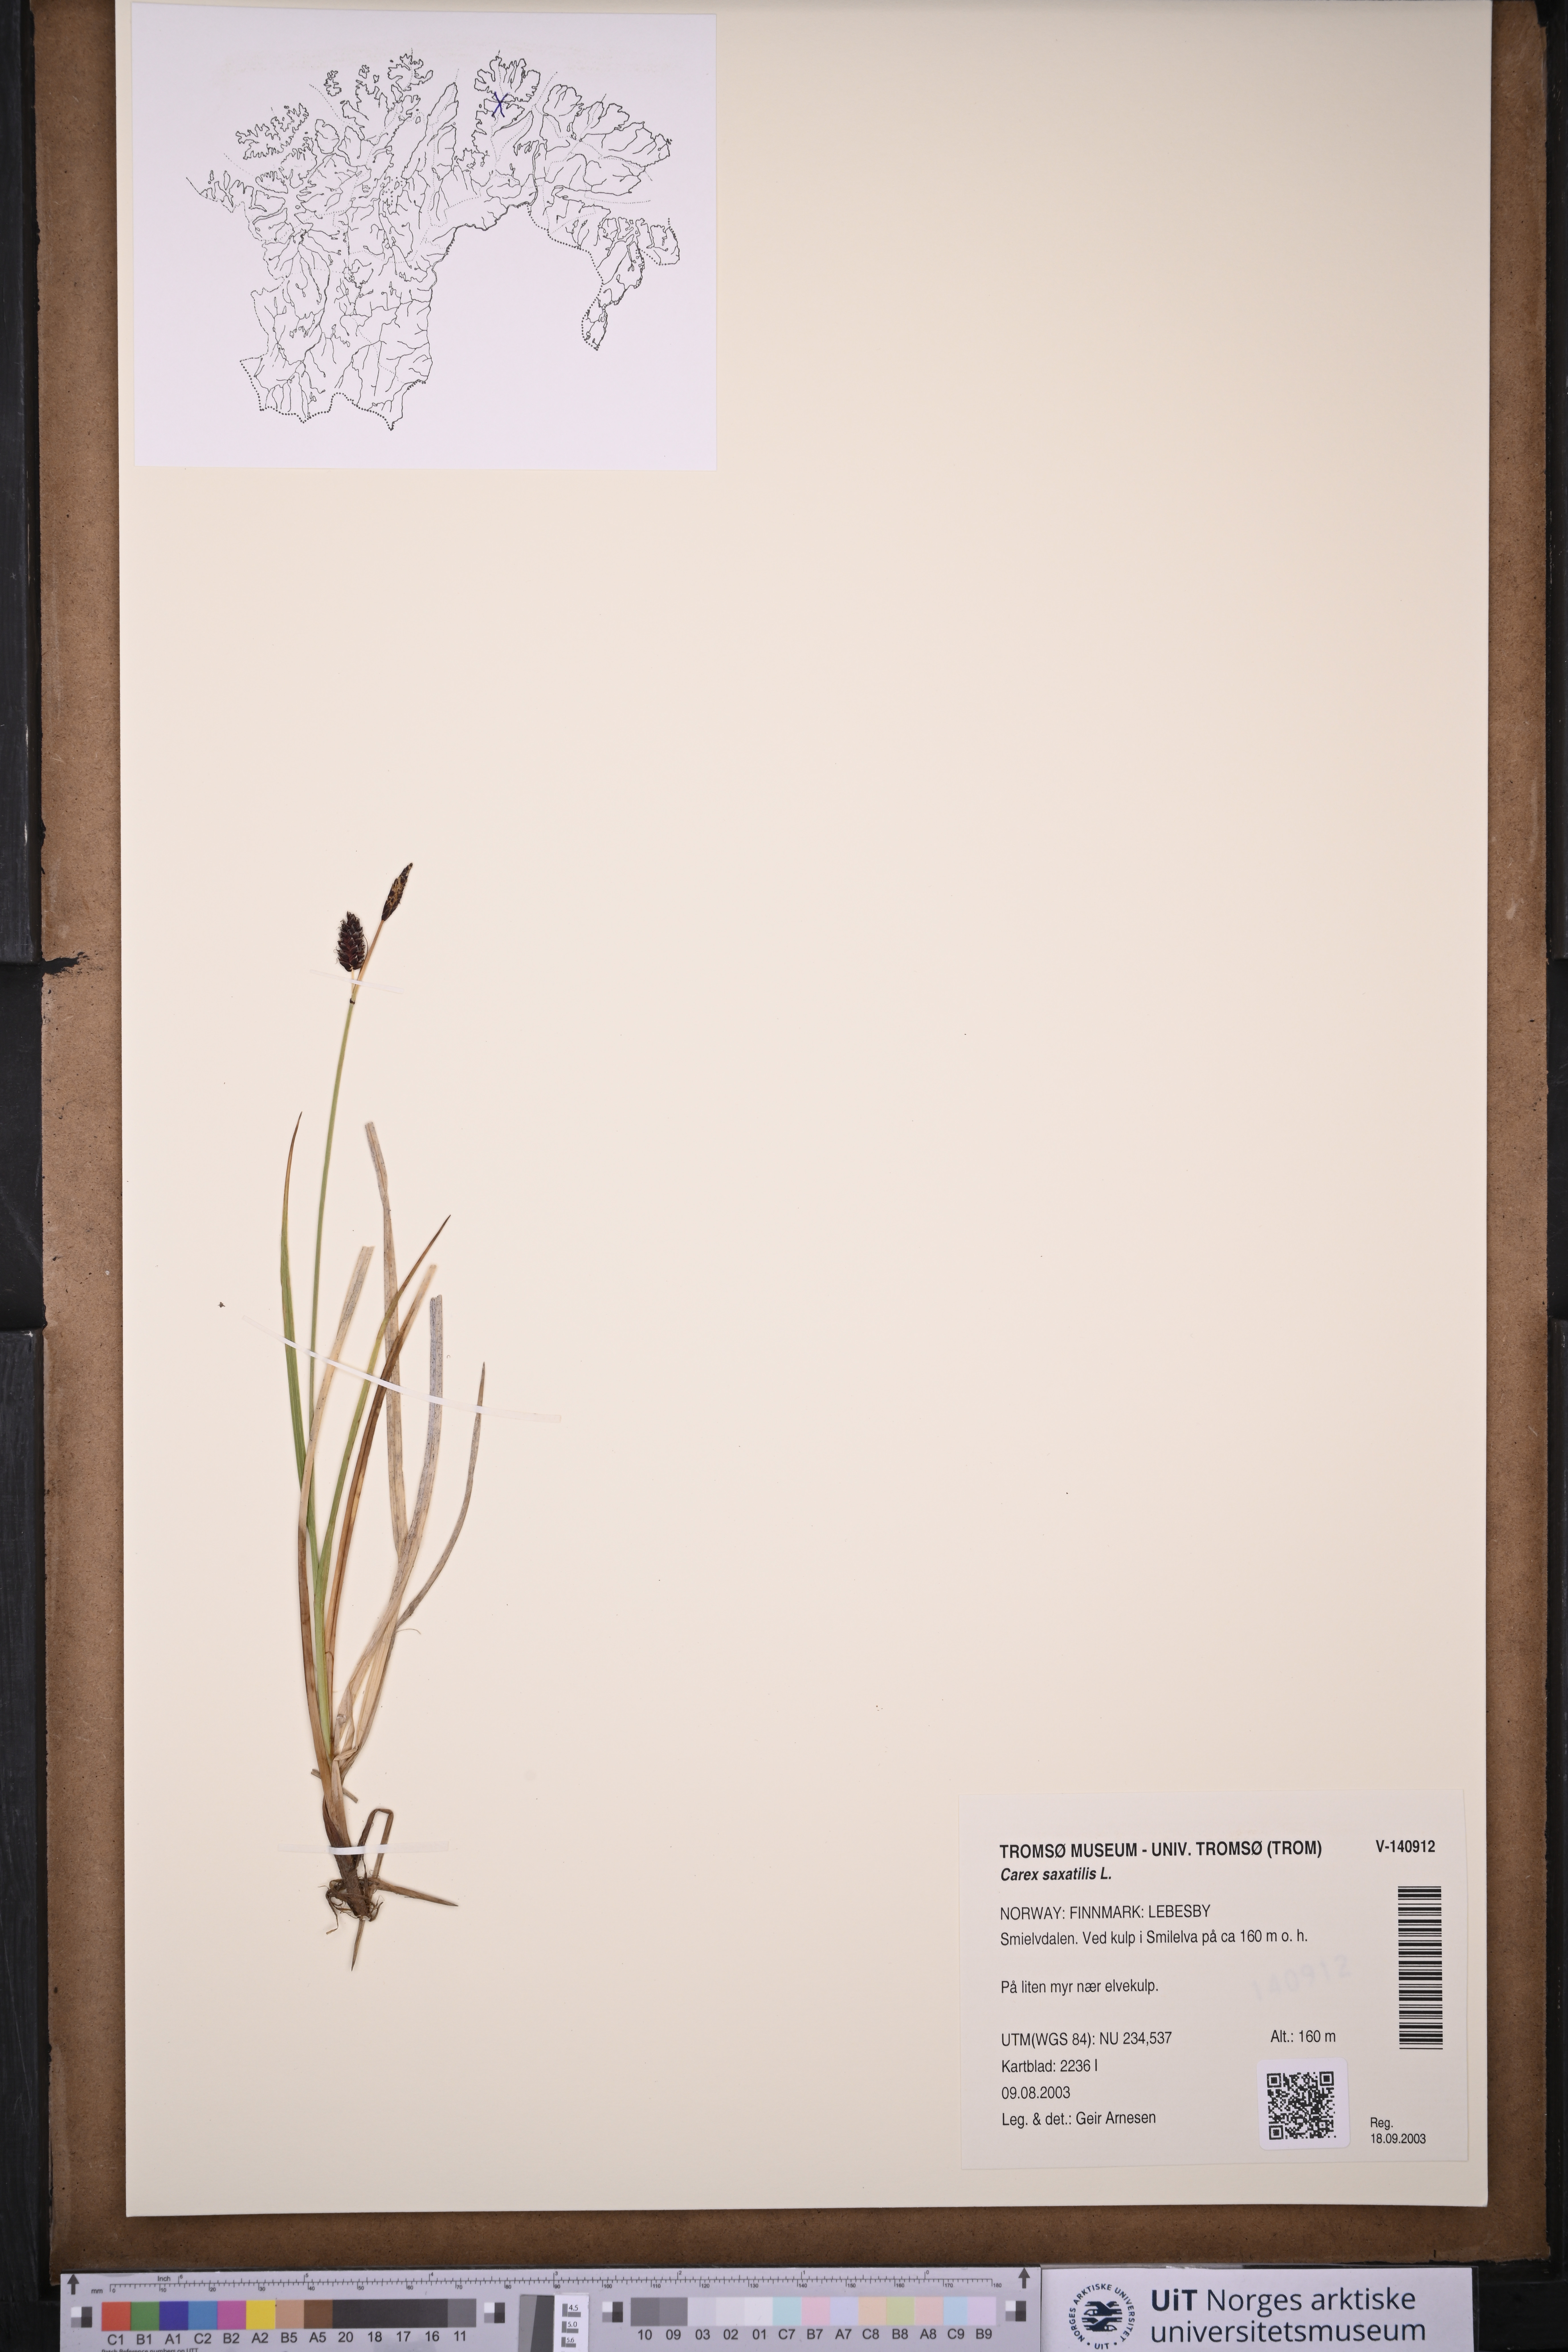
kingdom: Plantae
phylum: Tracheophyta
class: Liliopsida
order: Poales
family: Cyperaceae
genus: Carex
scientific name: Carex saxatilis
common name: Russet sedge
